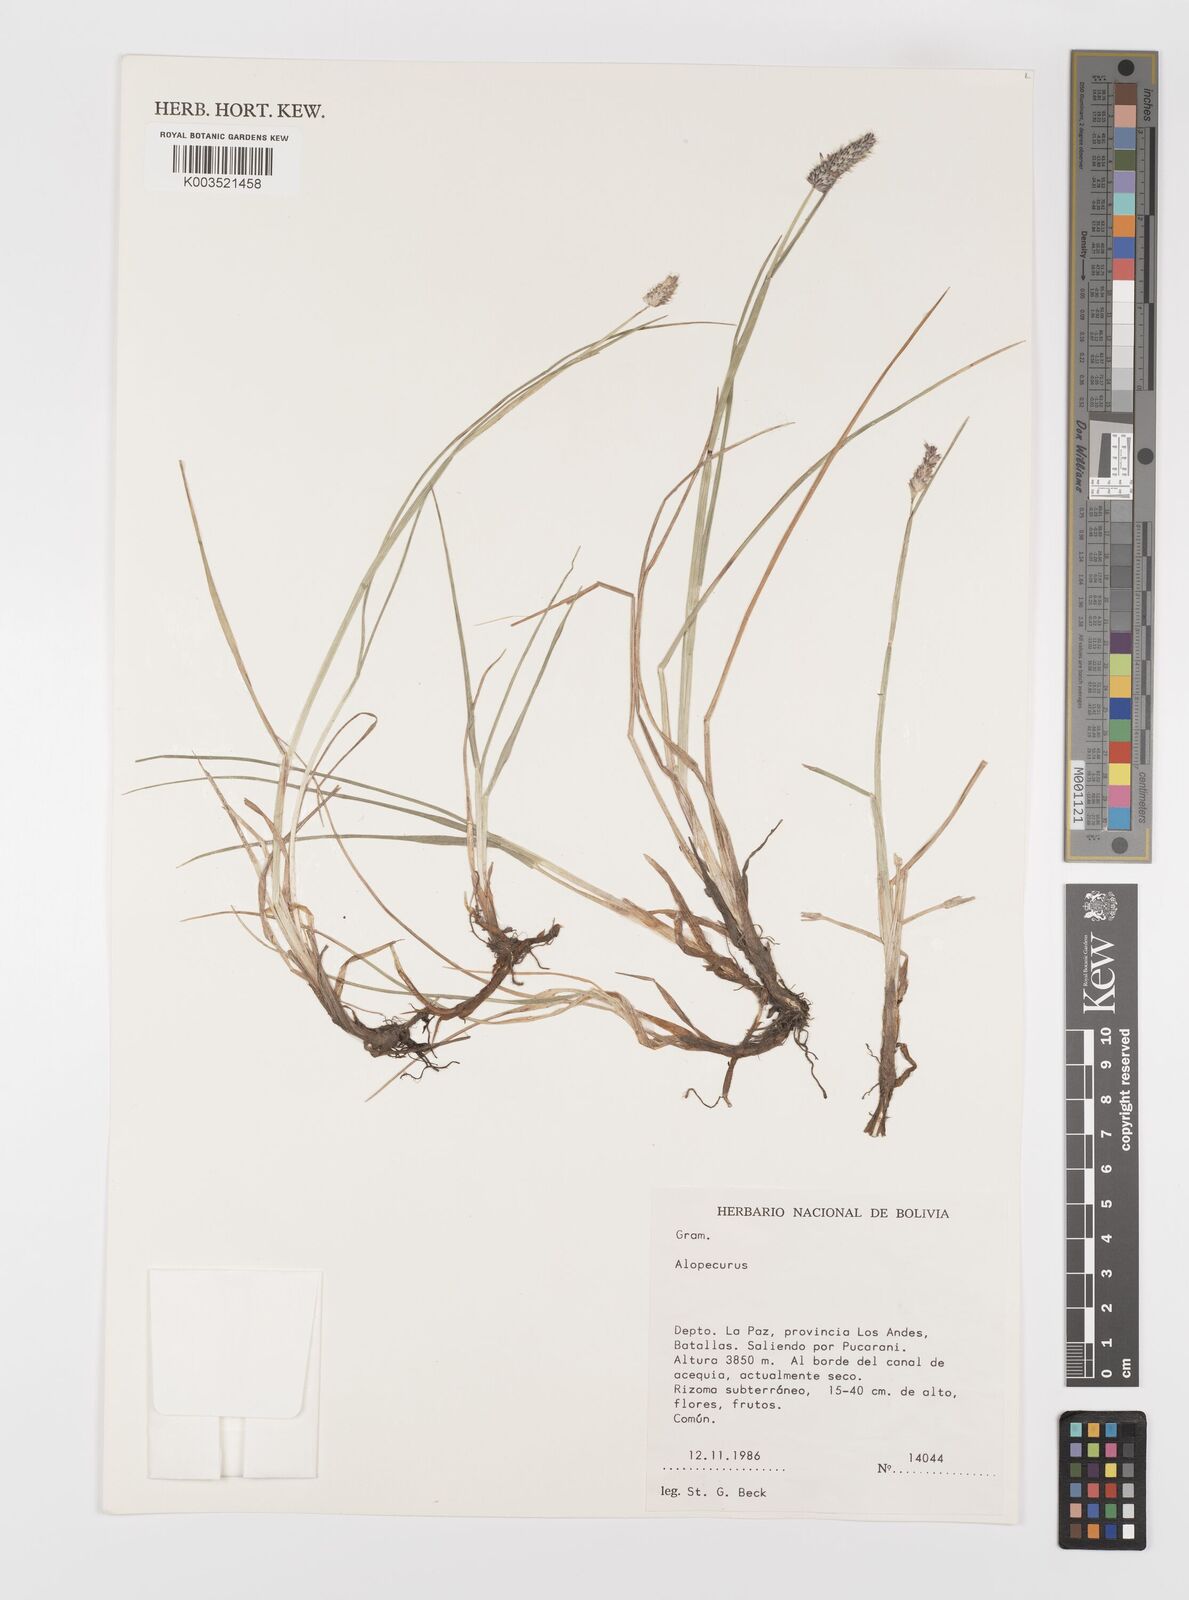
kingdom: Plantae
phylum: Tracheophyta
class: Liliopsida
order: Poales
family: Poaceae
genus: Alopecurus
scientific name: Alopecurus magellanicus
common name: Alpine foxtail
